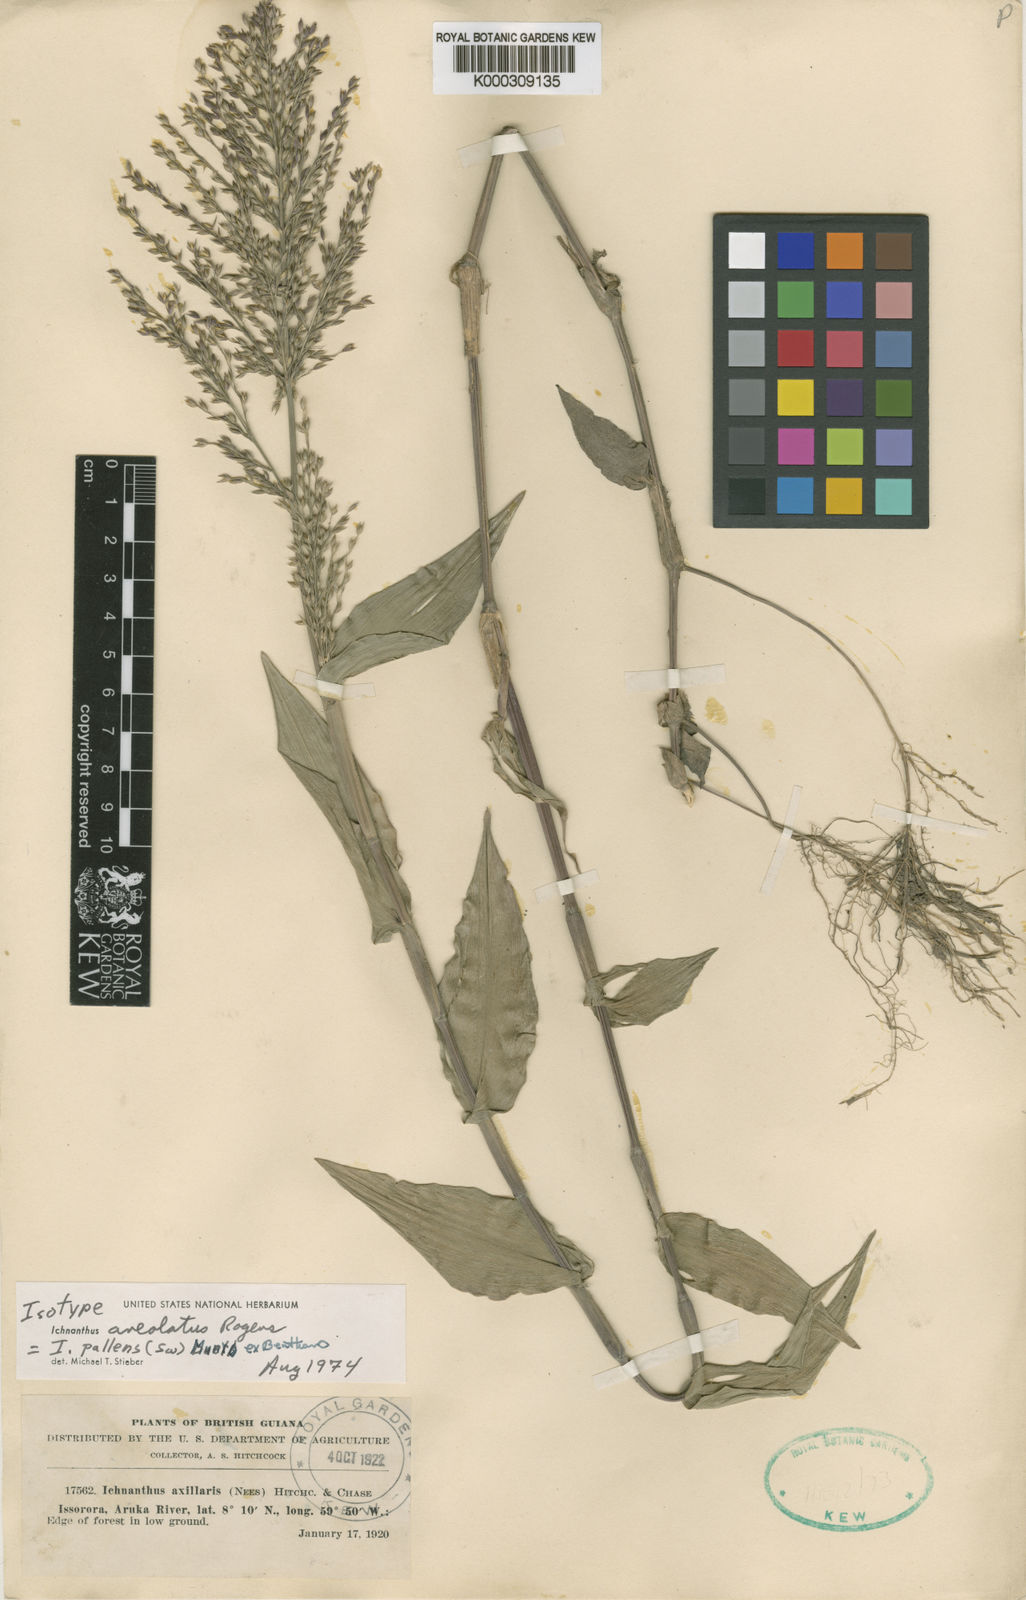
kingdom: Plantae
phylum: Tracheophyta
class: Liliopsida
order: Poales
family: Poaceae
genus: Ichnanthus
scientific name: Ichnanthus pallens
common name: Water grass
